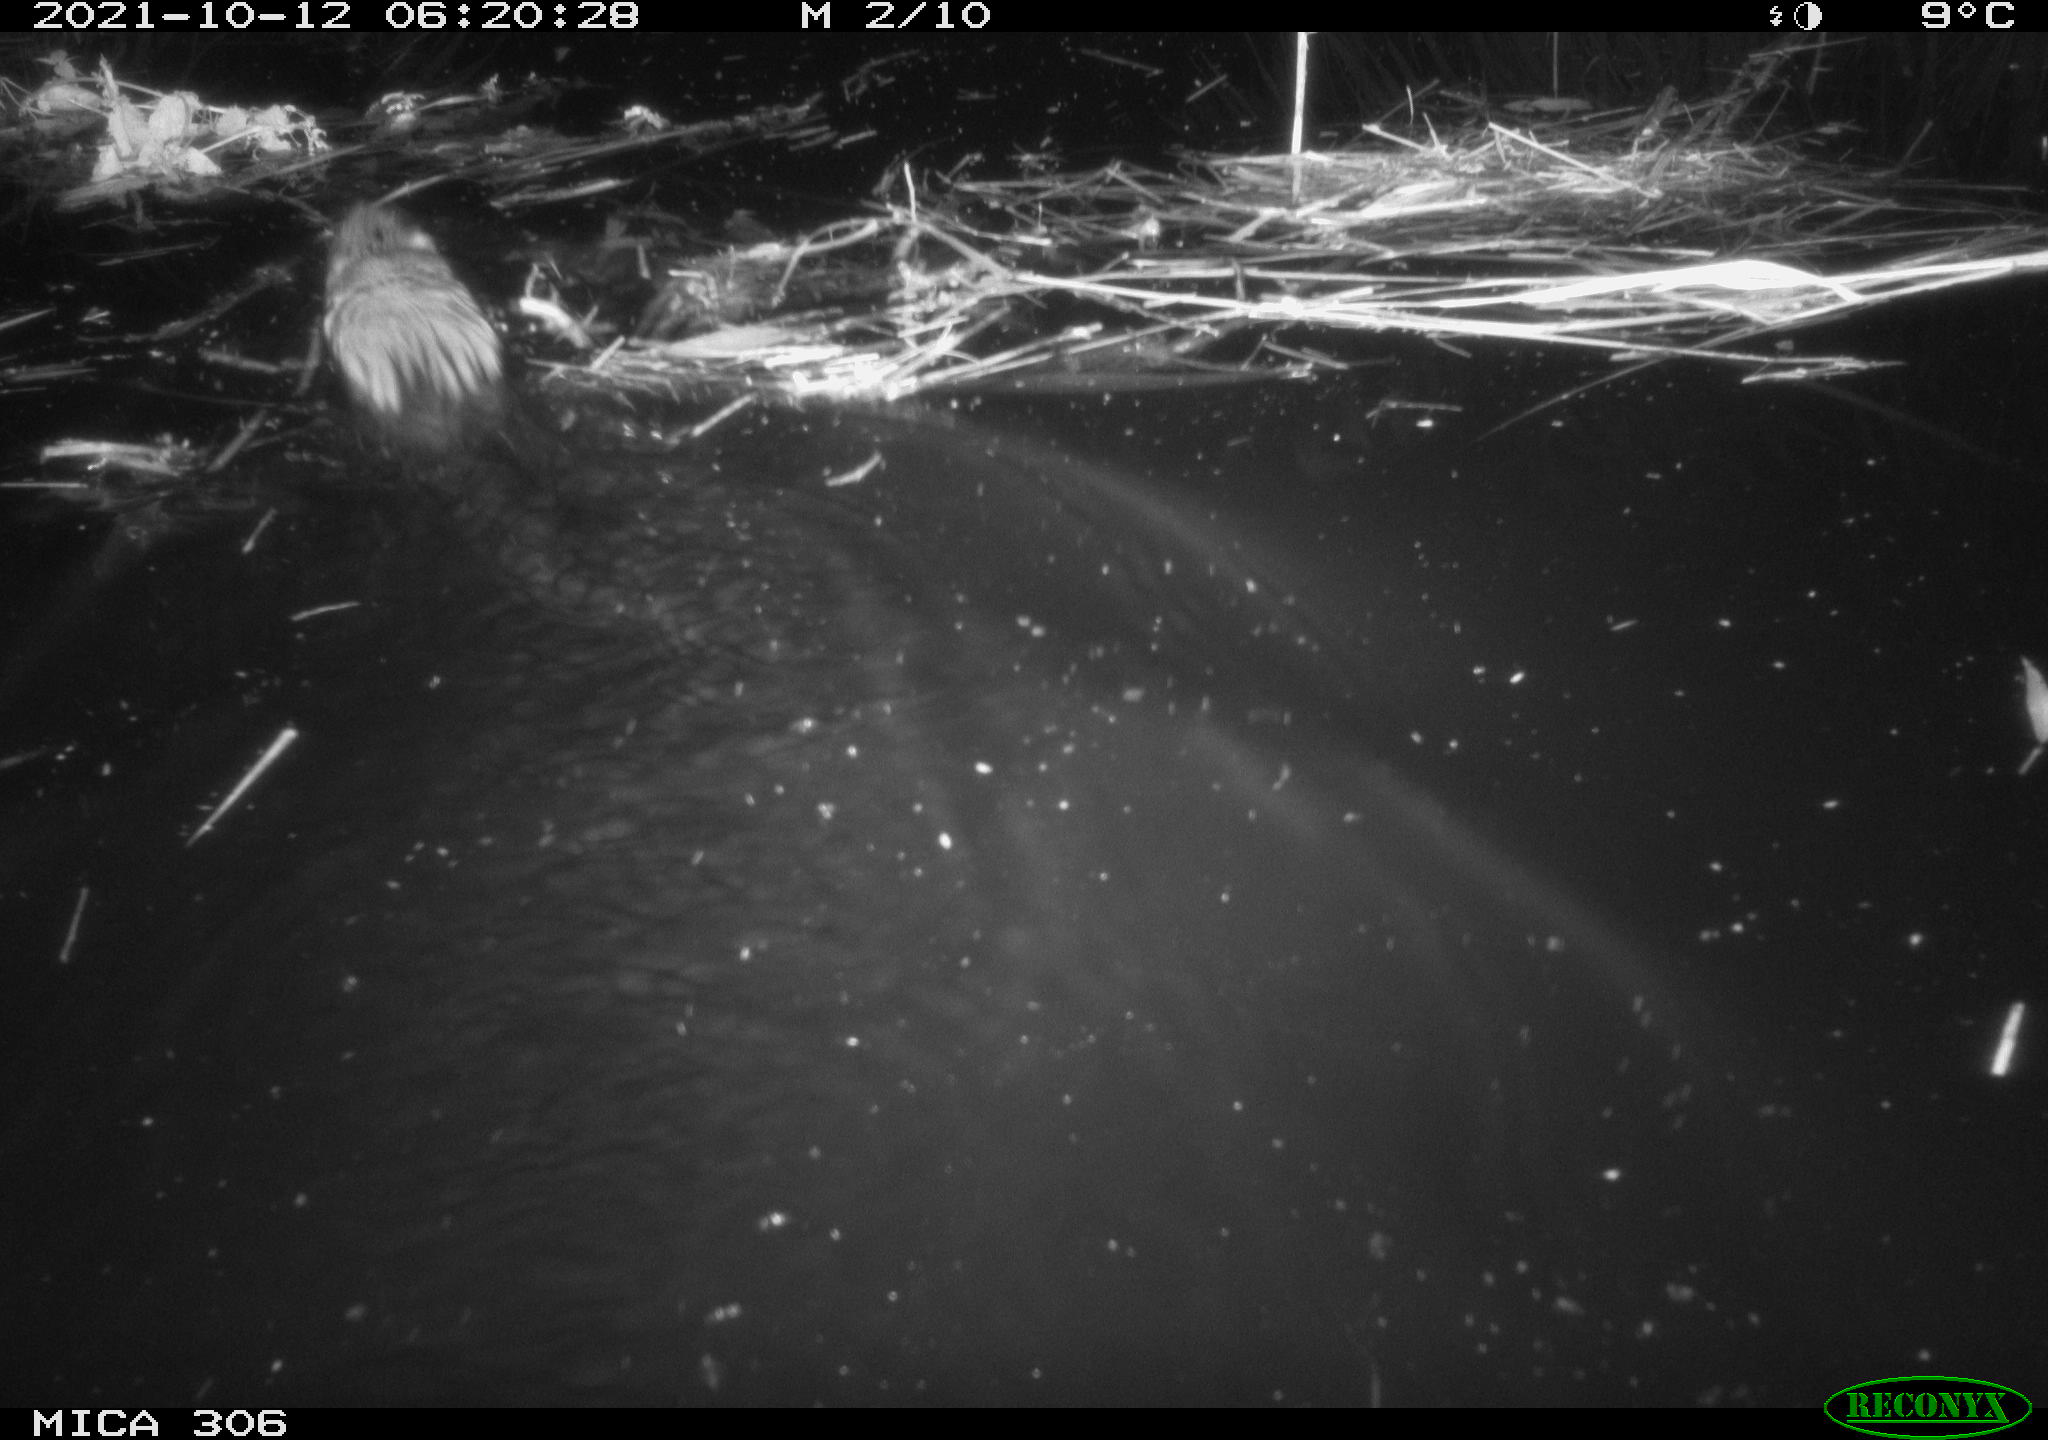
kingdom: Animalia
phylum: Chordata
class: Mammalia
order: Rodentia
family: Cricetidae
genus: Ondatra
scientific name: Ondatra zibethicus
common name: Muskrat
